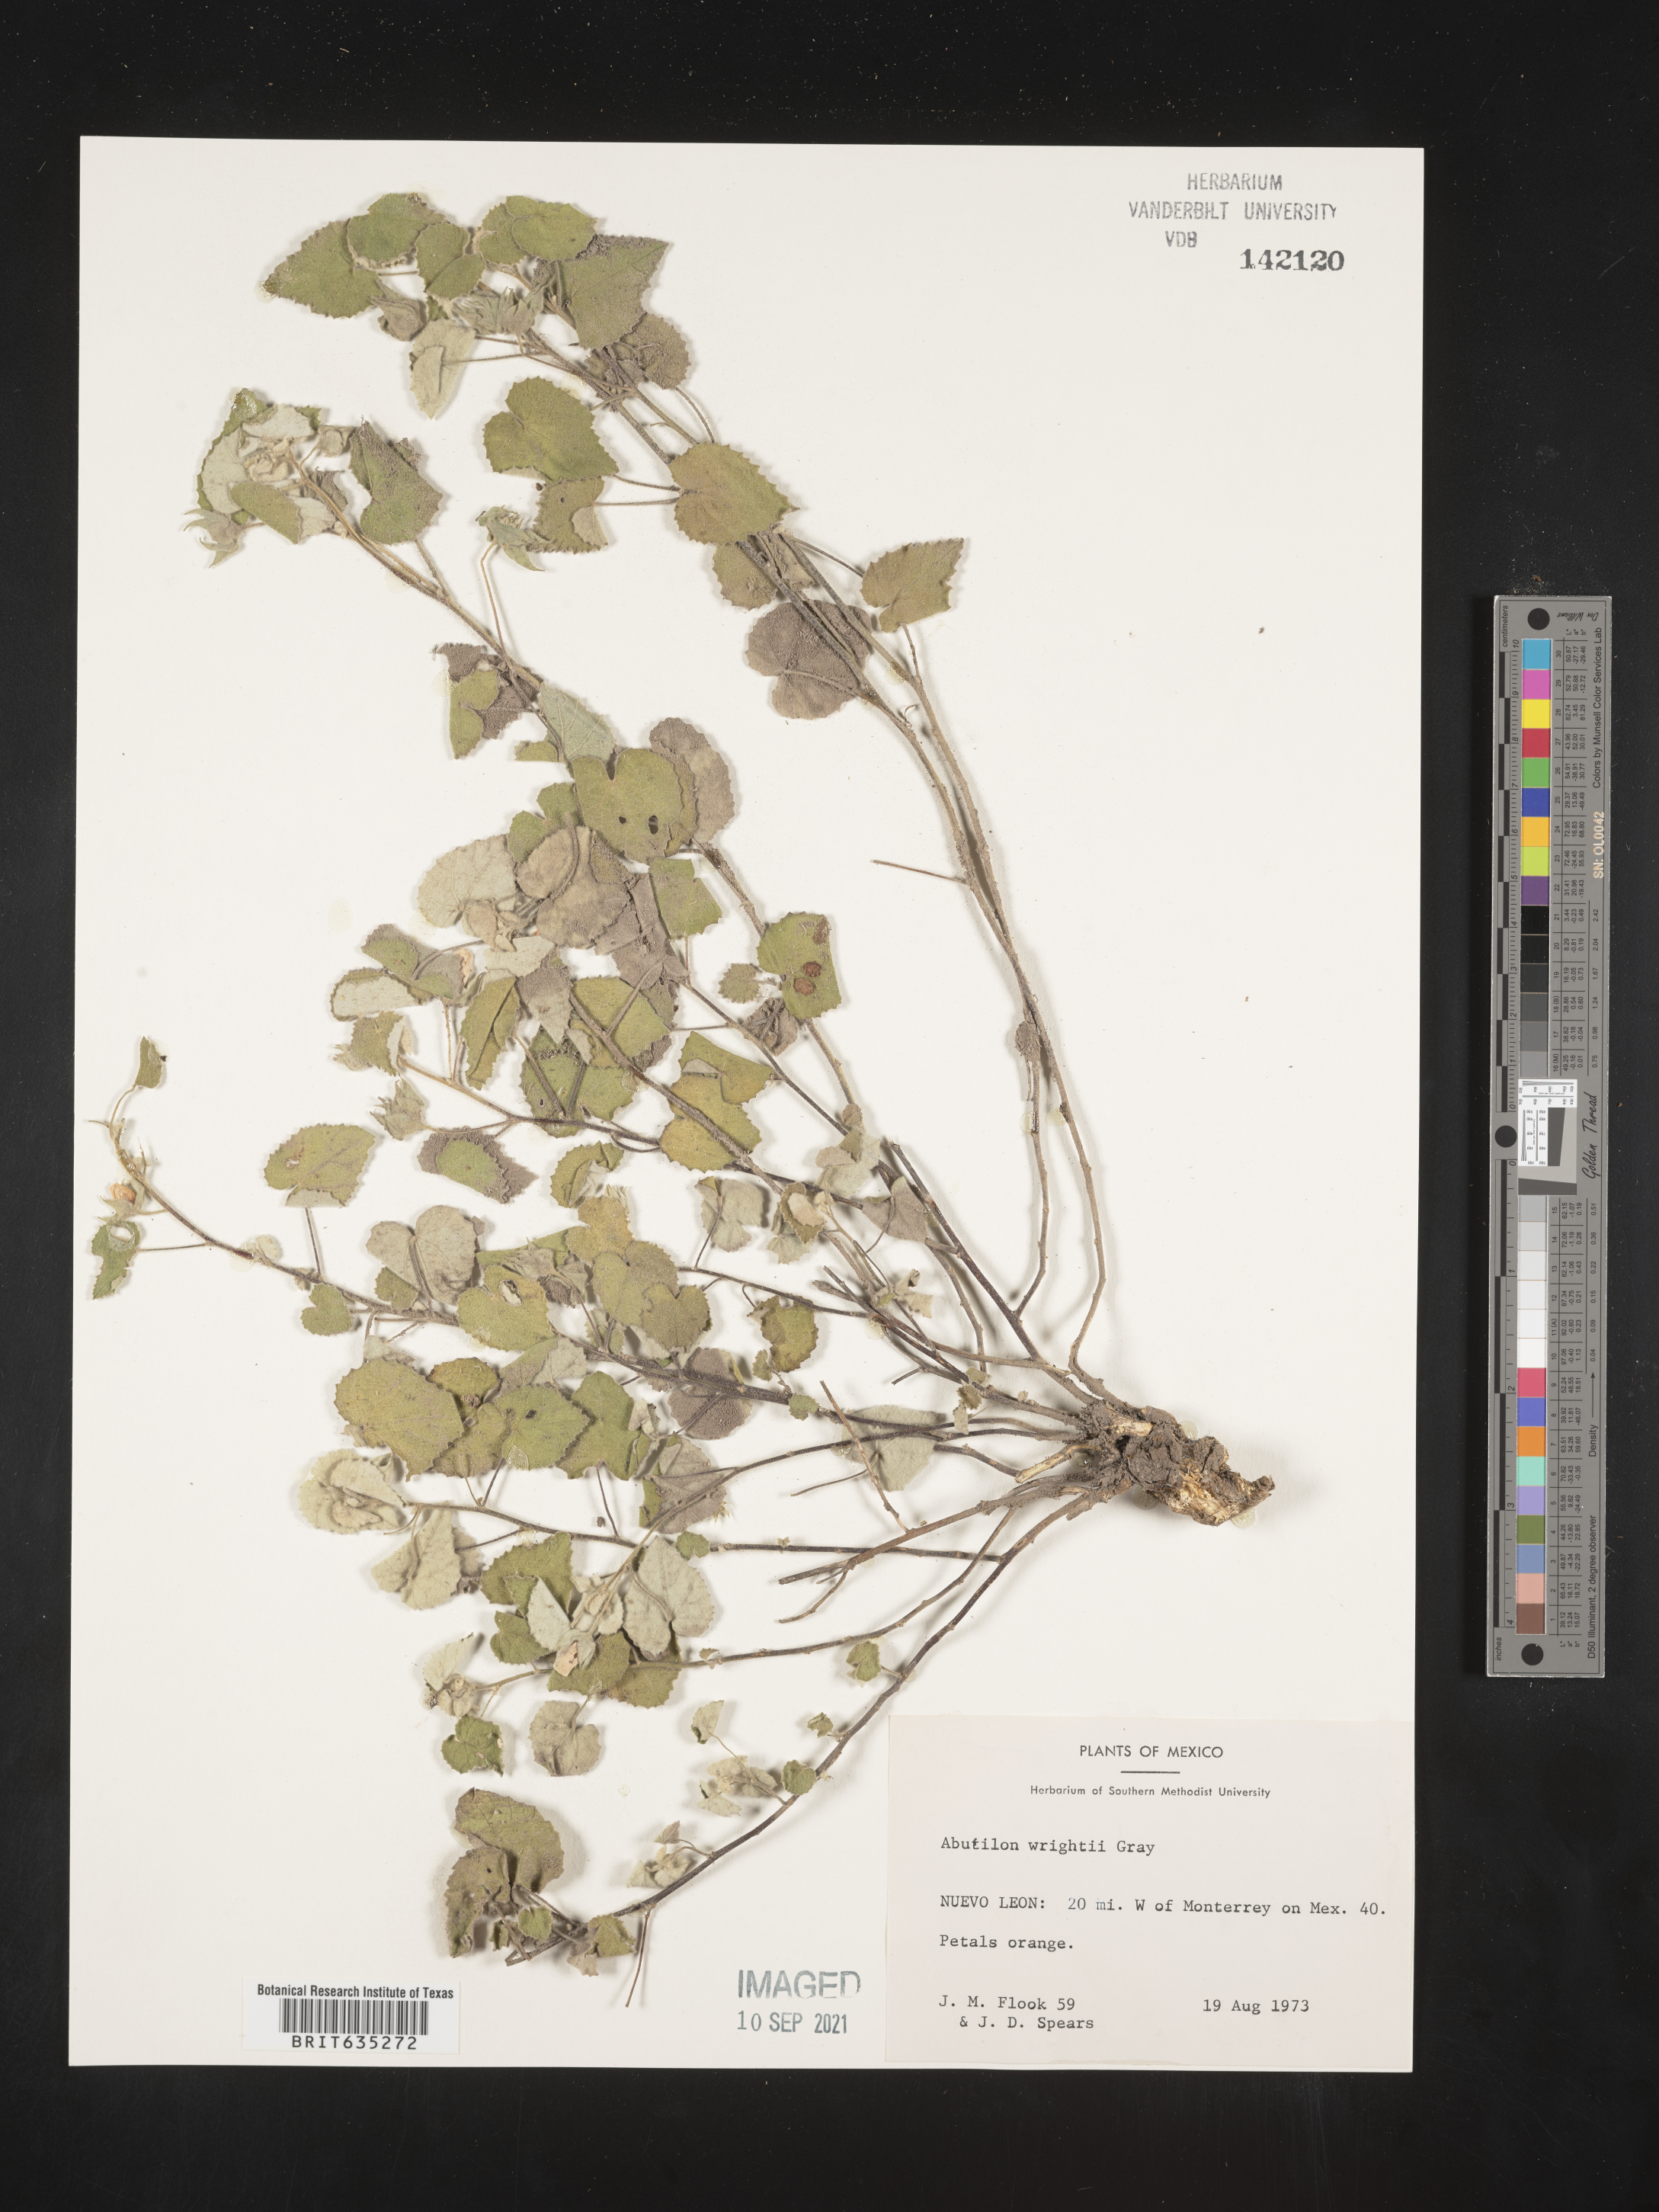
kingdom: Plantae
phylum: Tracheophyta
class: Magnoliopsida
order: Malvales
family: Malvaceae
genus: Abutilon
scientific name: Abutilon
